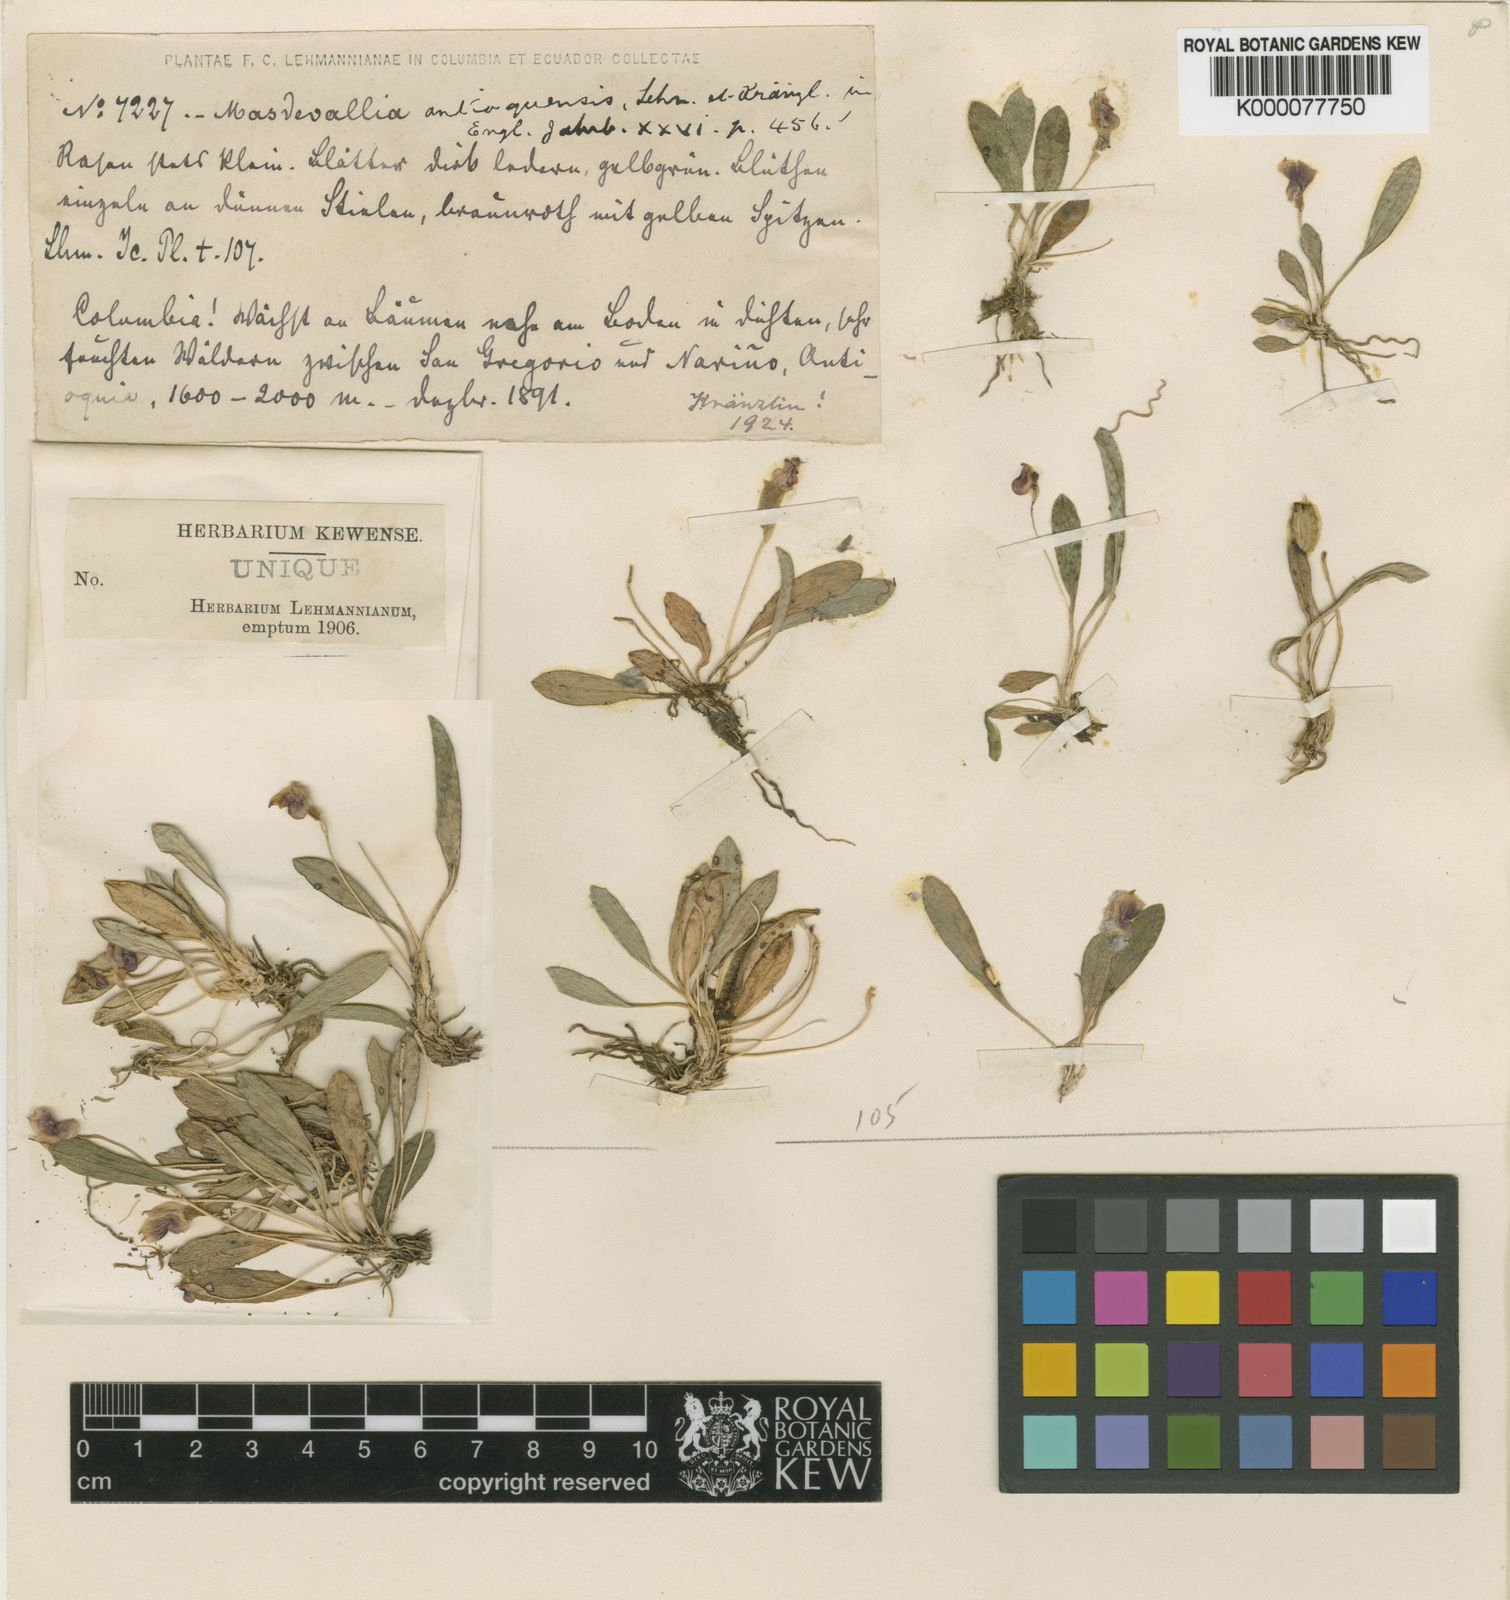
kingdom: Plantae
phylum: Tracheophyta
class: Liliopsida
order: Asparagales
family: Orchidaceae
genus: Masdevallia
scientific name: Masdevallia molossus
